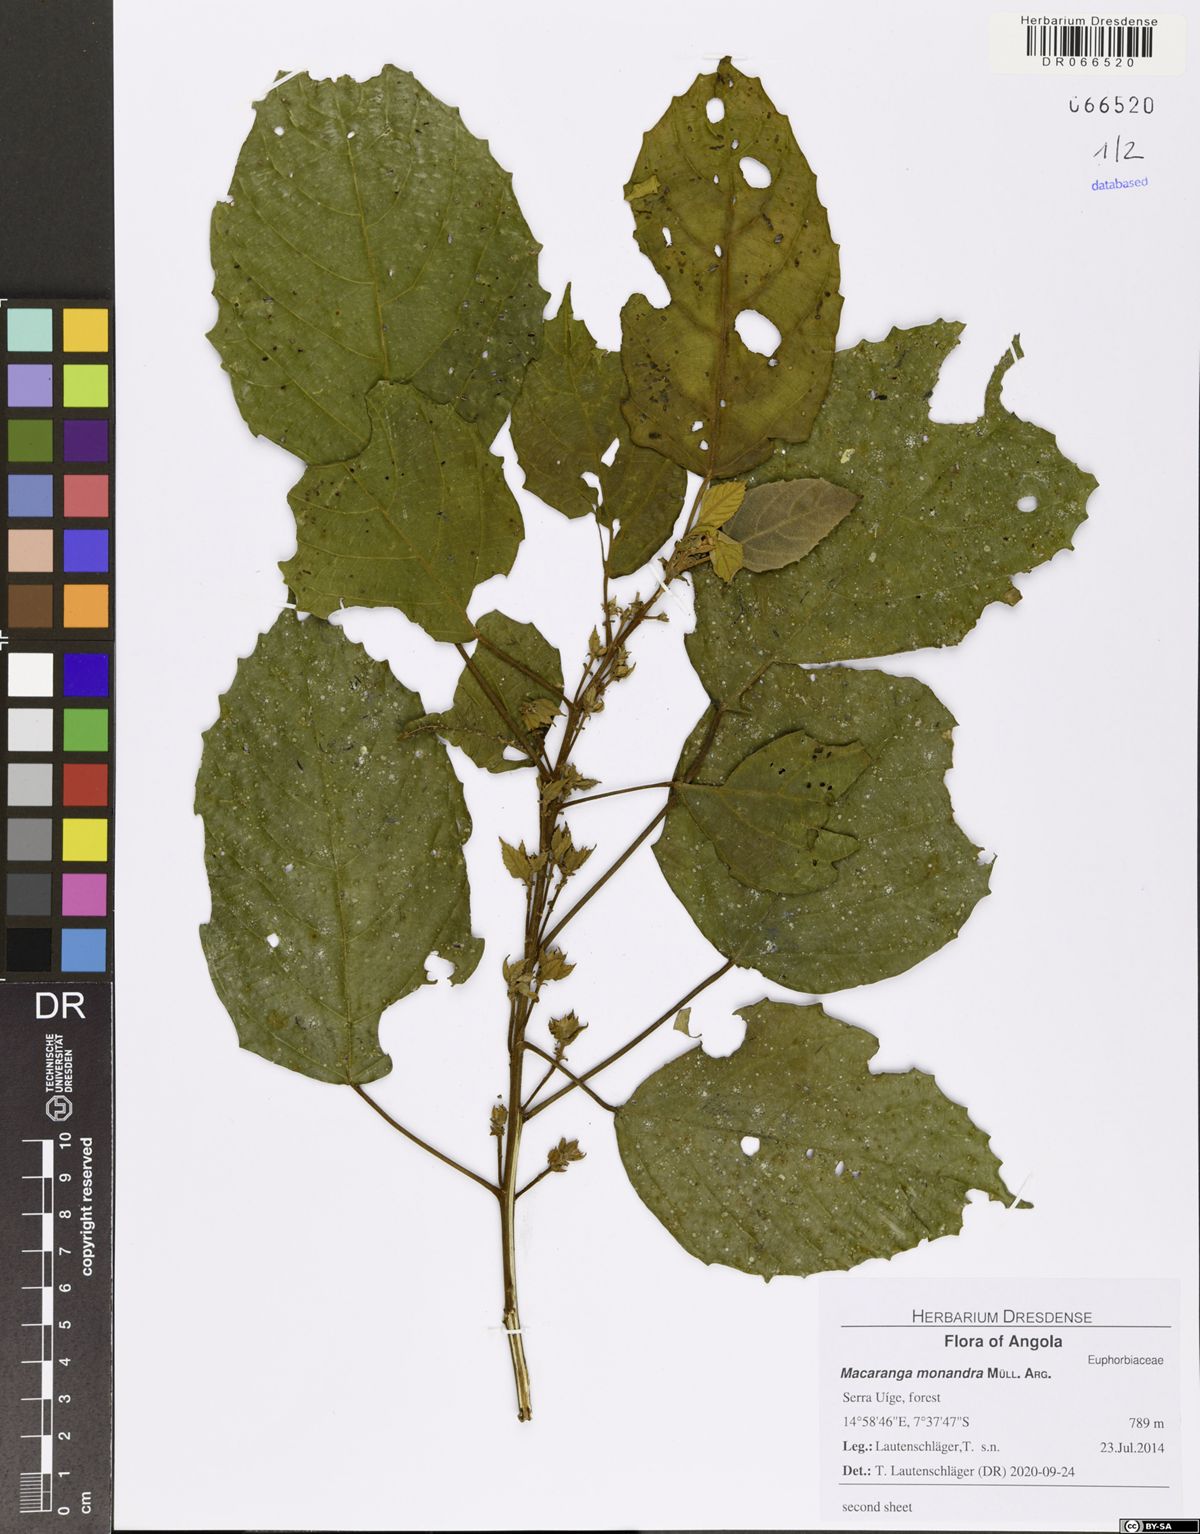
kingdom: Plantae
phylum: Tracheophyta
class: Magnoliopsida
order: Malpighiales
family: Euphorbiaceae
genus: Macaranga
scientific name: Macaranga monandra
